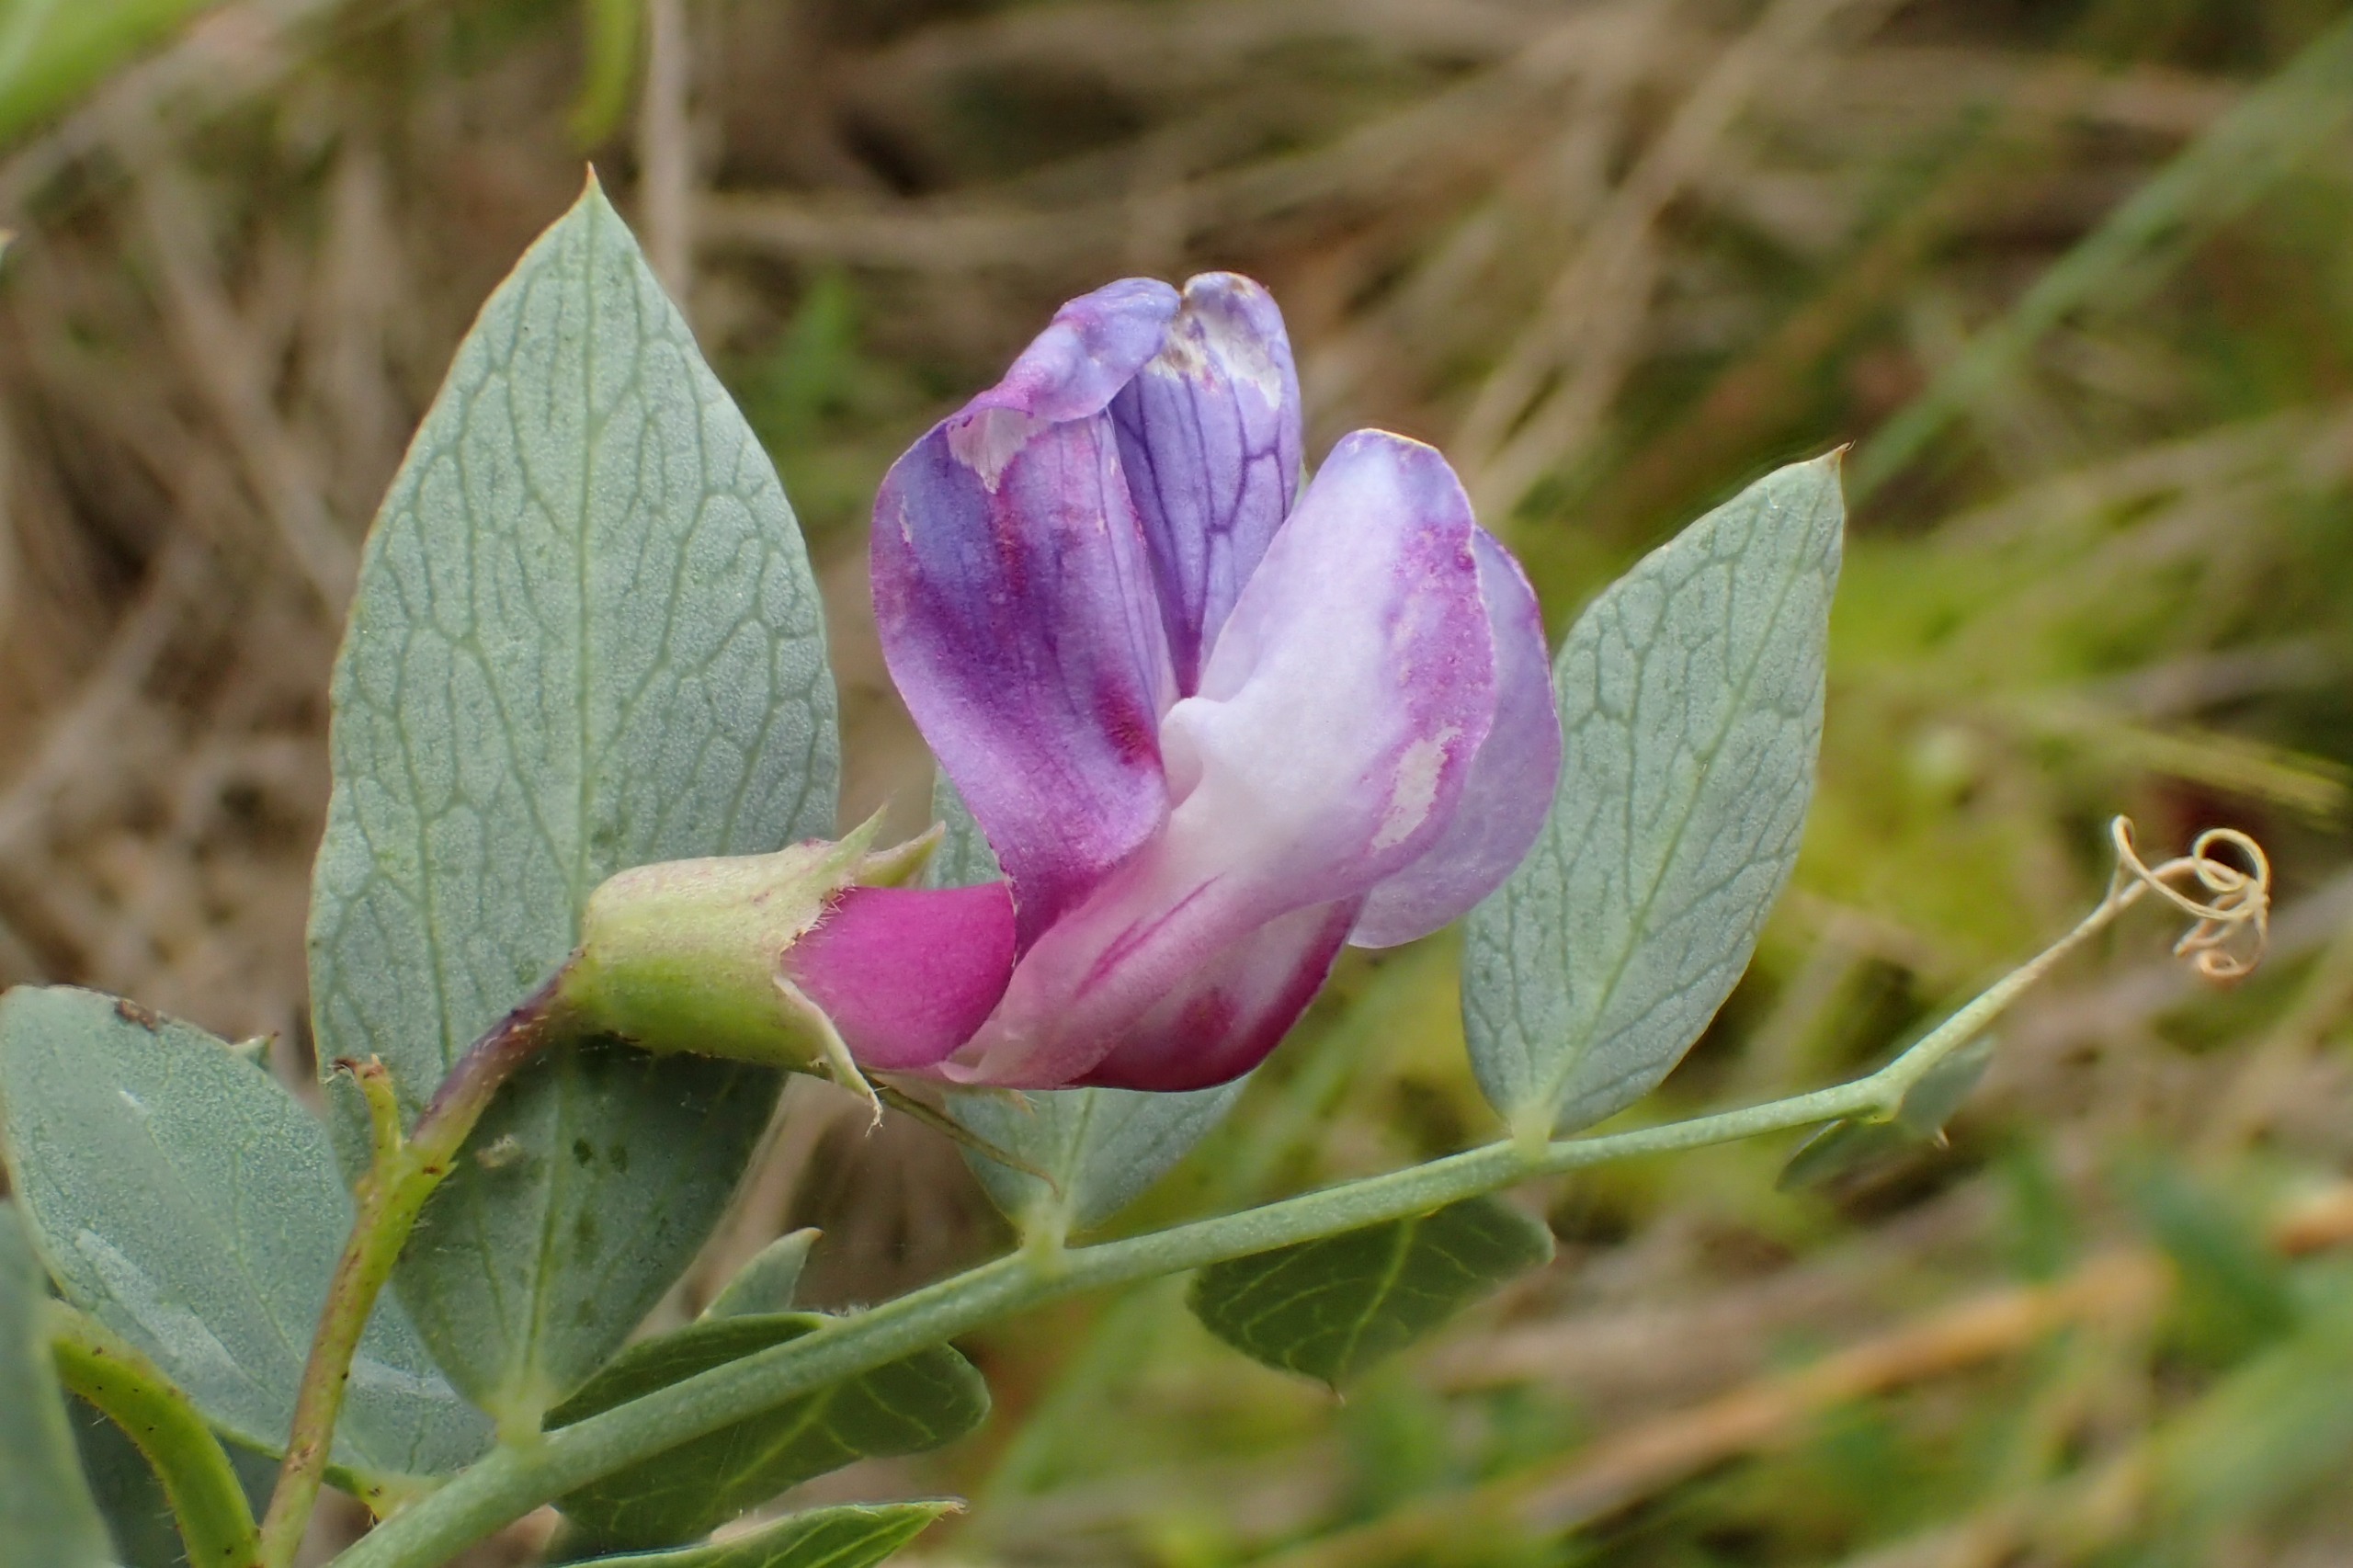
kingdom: Plantae
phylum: Tracheophyta
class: Magnoliopsida
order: Fabales
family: Fabaceae
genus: Lathyrus
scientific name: Lathyrus japonicus
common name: Strand-fladbælg
